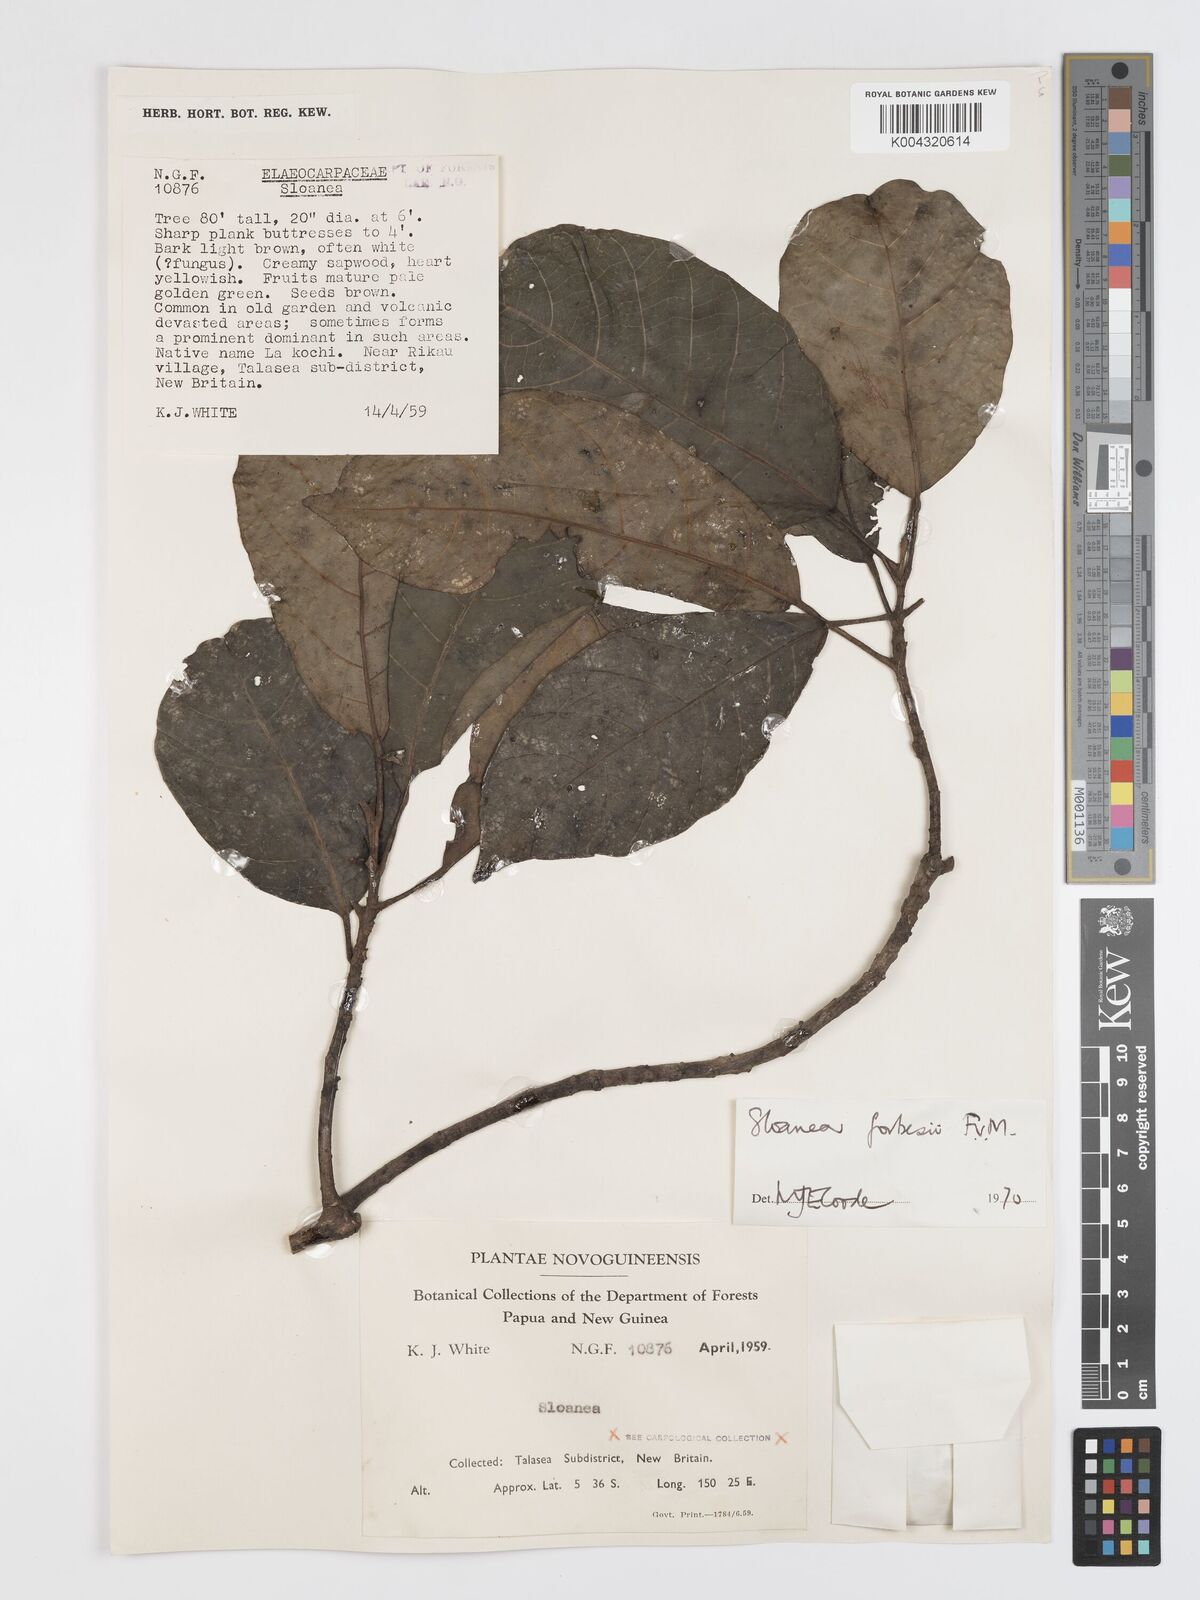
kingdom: Plantae
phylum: Tracheophyta
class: Magnoliopsida
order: Oxalidales
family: Elaeocarpaceae
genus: Sloanea
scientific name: Sloanea forbesii
